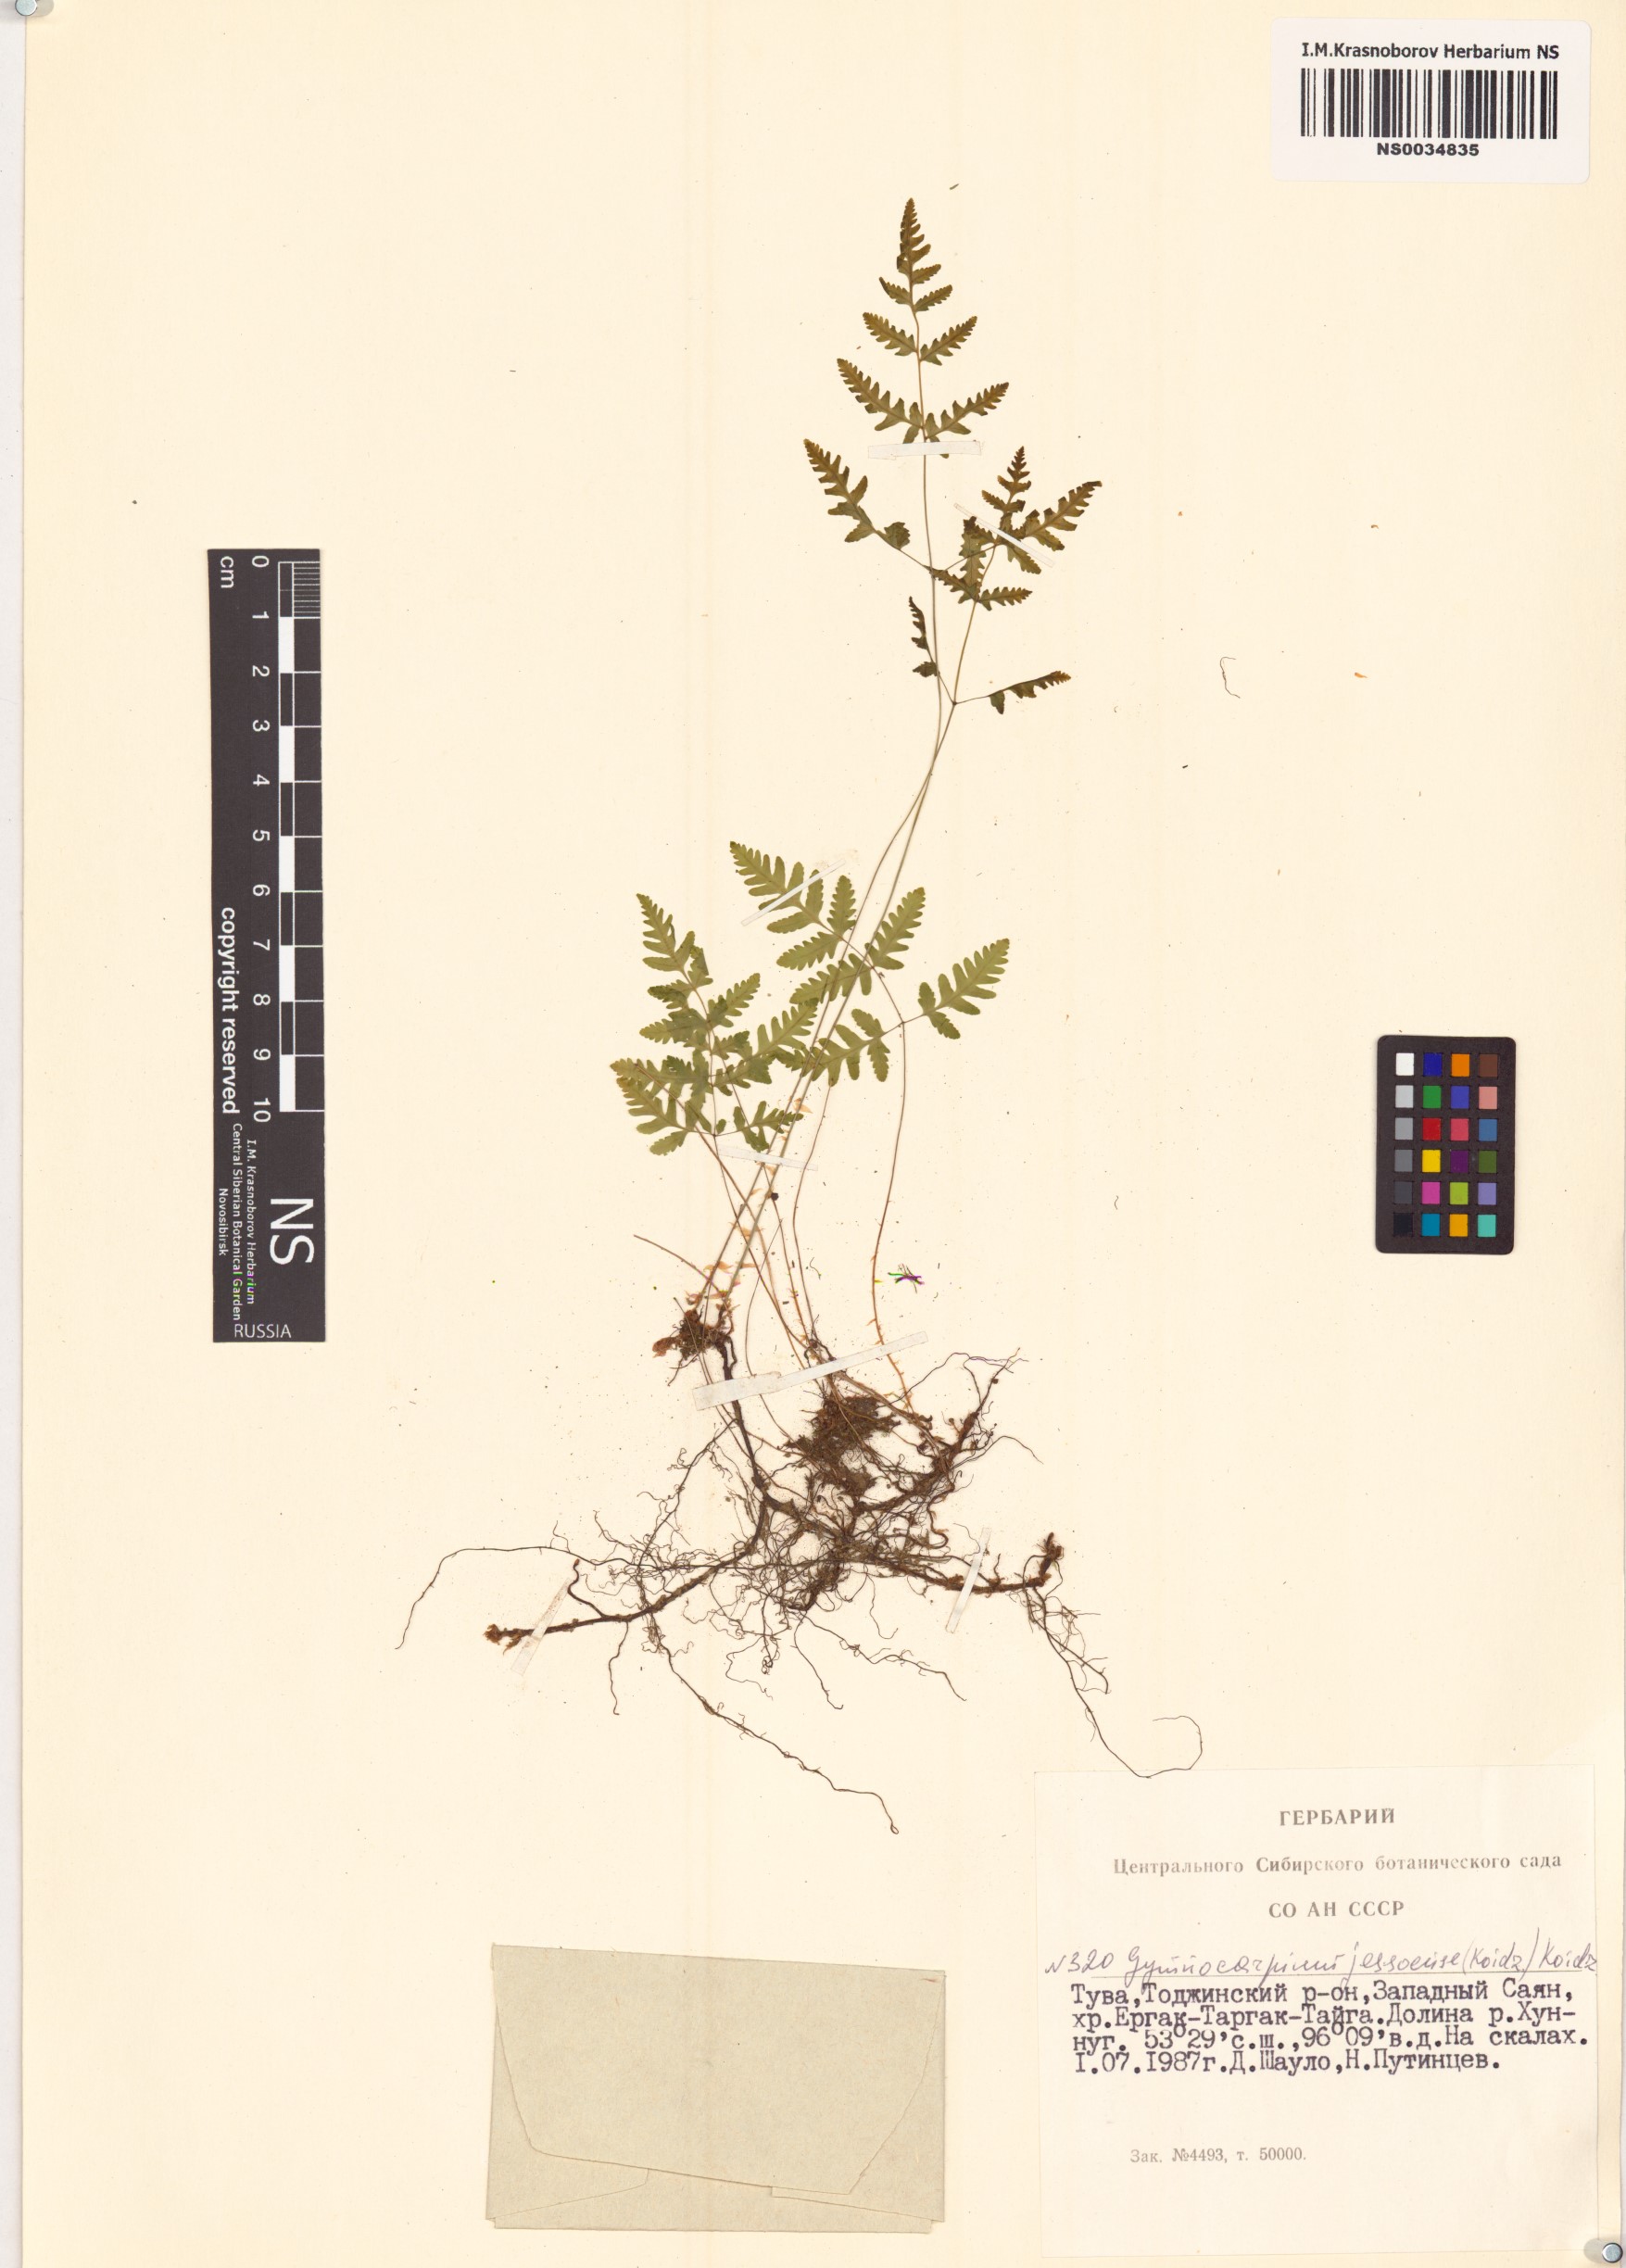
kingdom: Plantae
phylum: Tracheophyta
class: Polypodiopsida
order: Polypodiales
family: Cystopteridaceae
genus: Gymnocarpium
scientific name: Gymnocarpium jessoense
